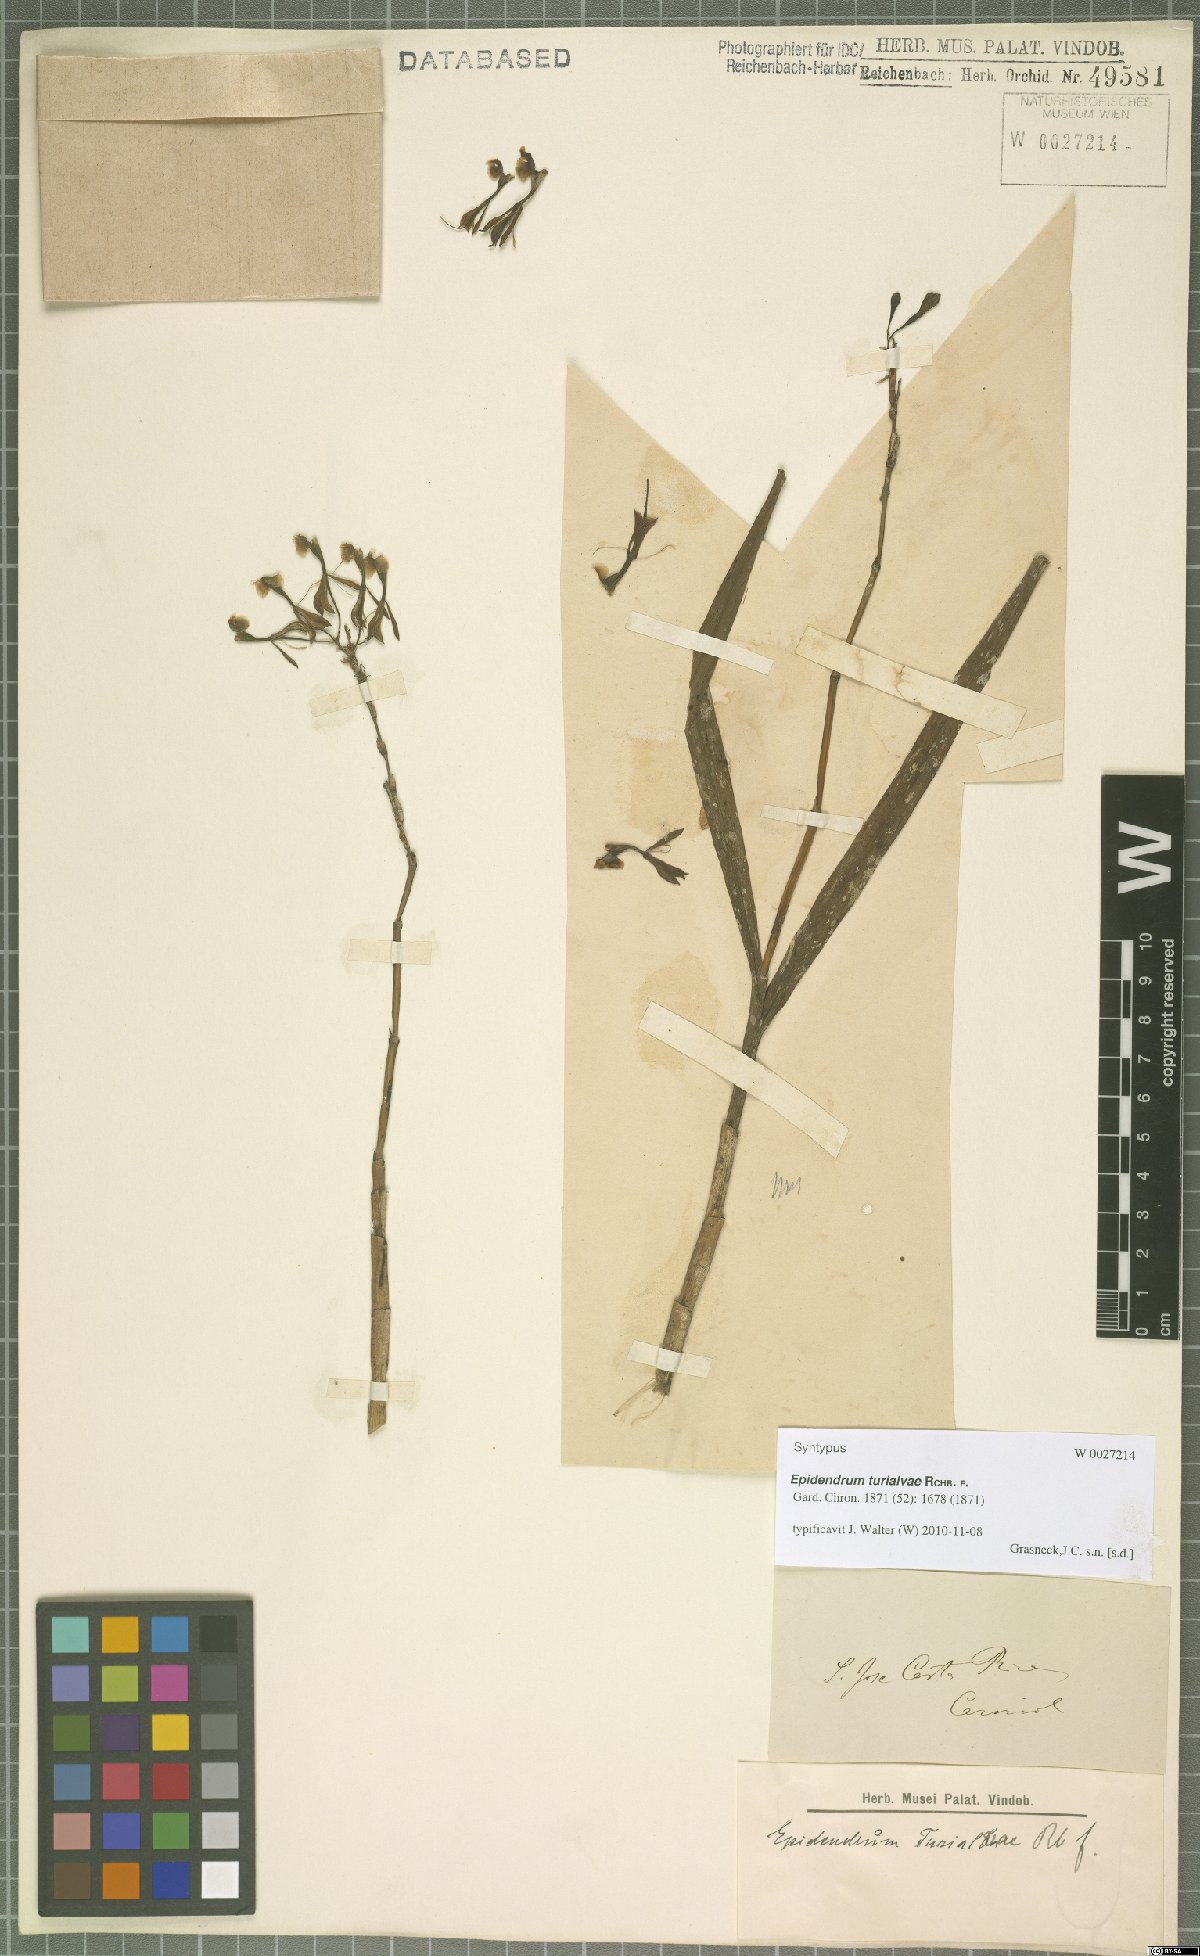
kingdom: Plantae
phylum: Tracheophyta
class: Liliopsida
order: Asparagales
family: Orchidaceae
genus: Epidendrum
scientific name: Epidendrum turialvae
